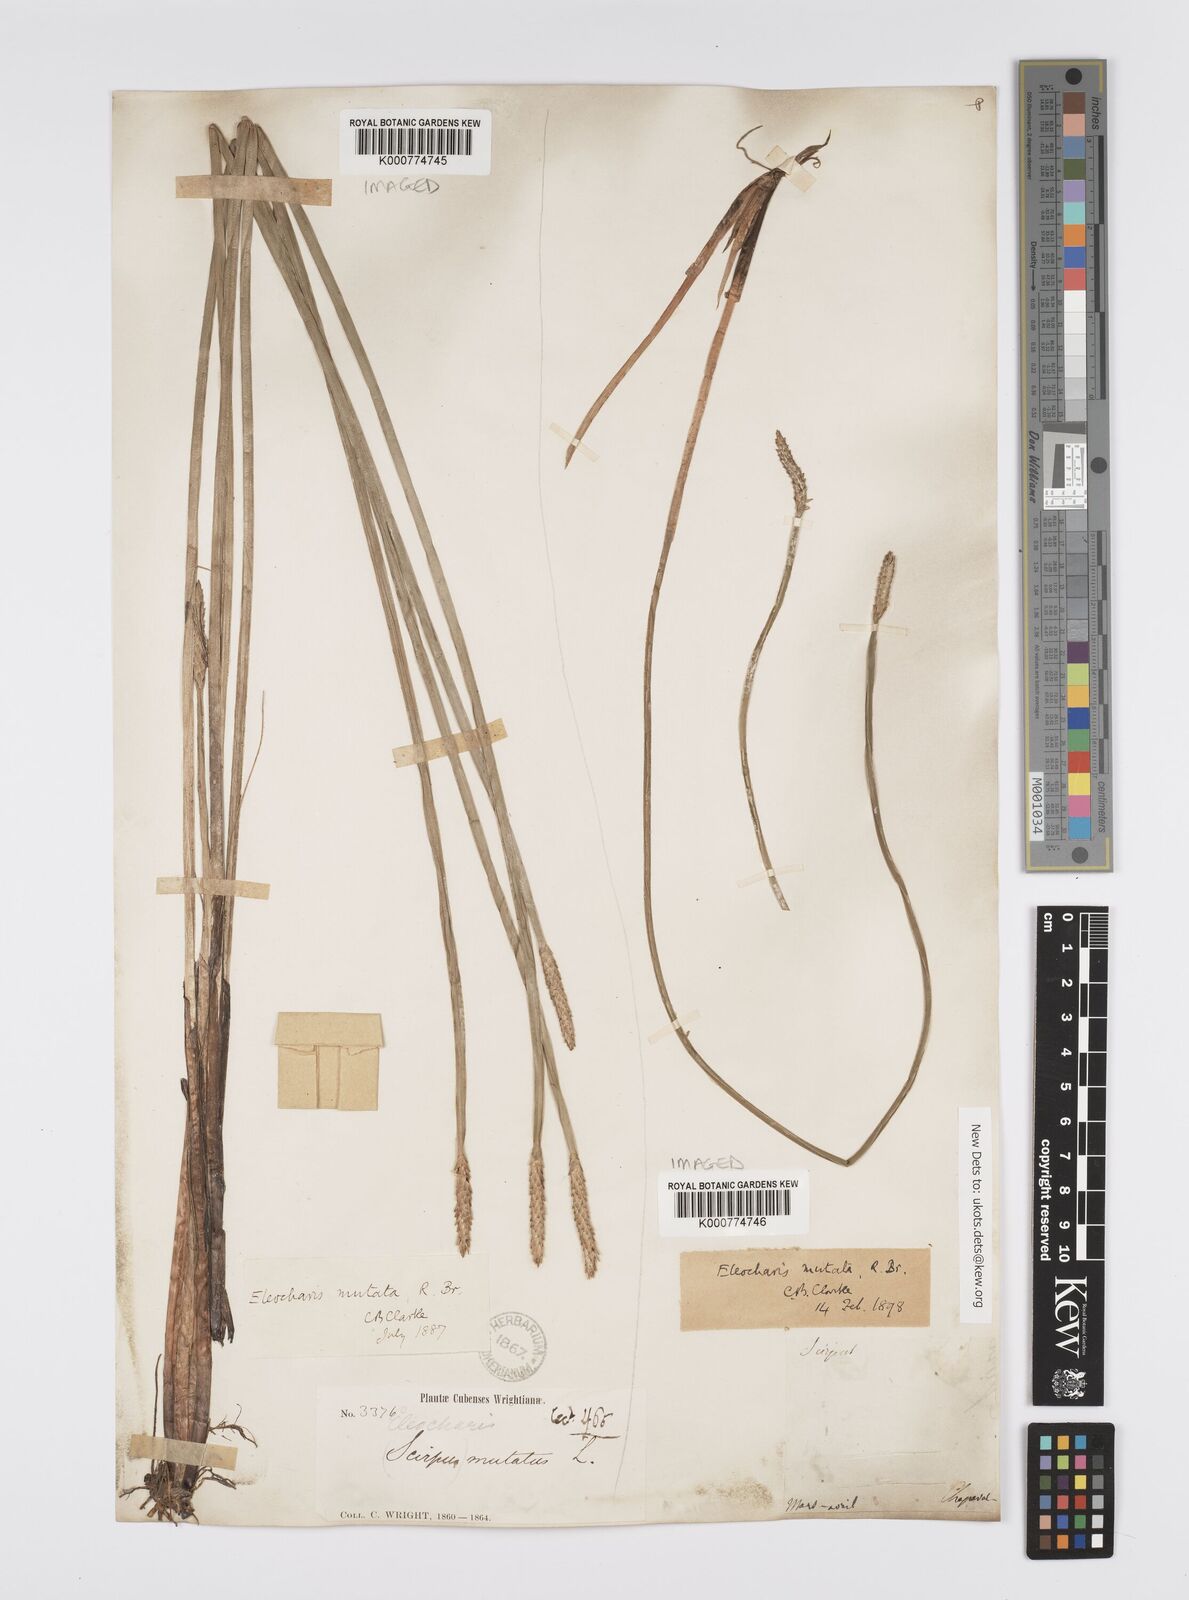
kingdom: Plantae
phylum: Tracheophyta
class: Liliopsida
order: Poales
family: Cyperaceae
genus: Eleocharis
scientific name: Eleocharis mutata
